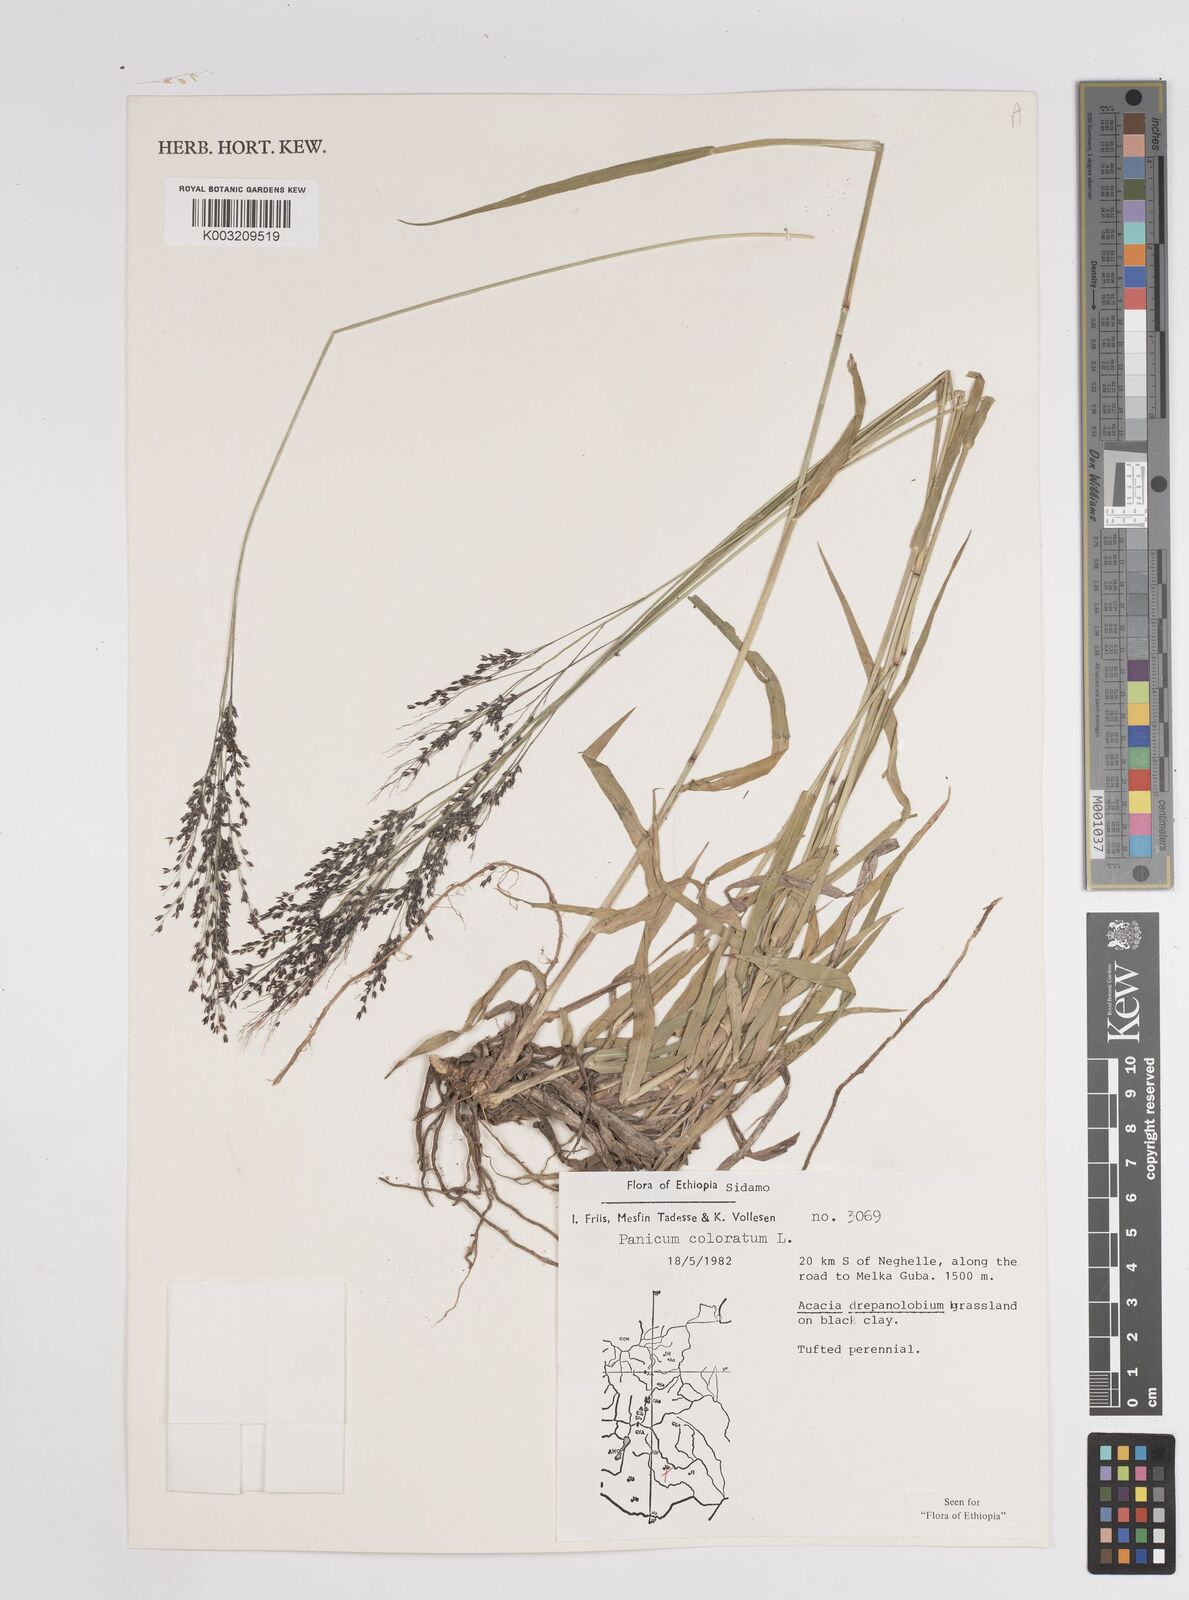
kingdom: Plantae
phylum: Tracheophyta
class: Liliopsida
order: Poales
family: Poaceae
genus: Panicum
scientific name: Panicum coloratum
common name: Kleingrass
